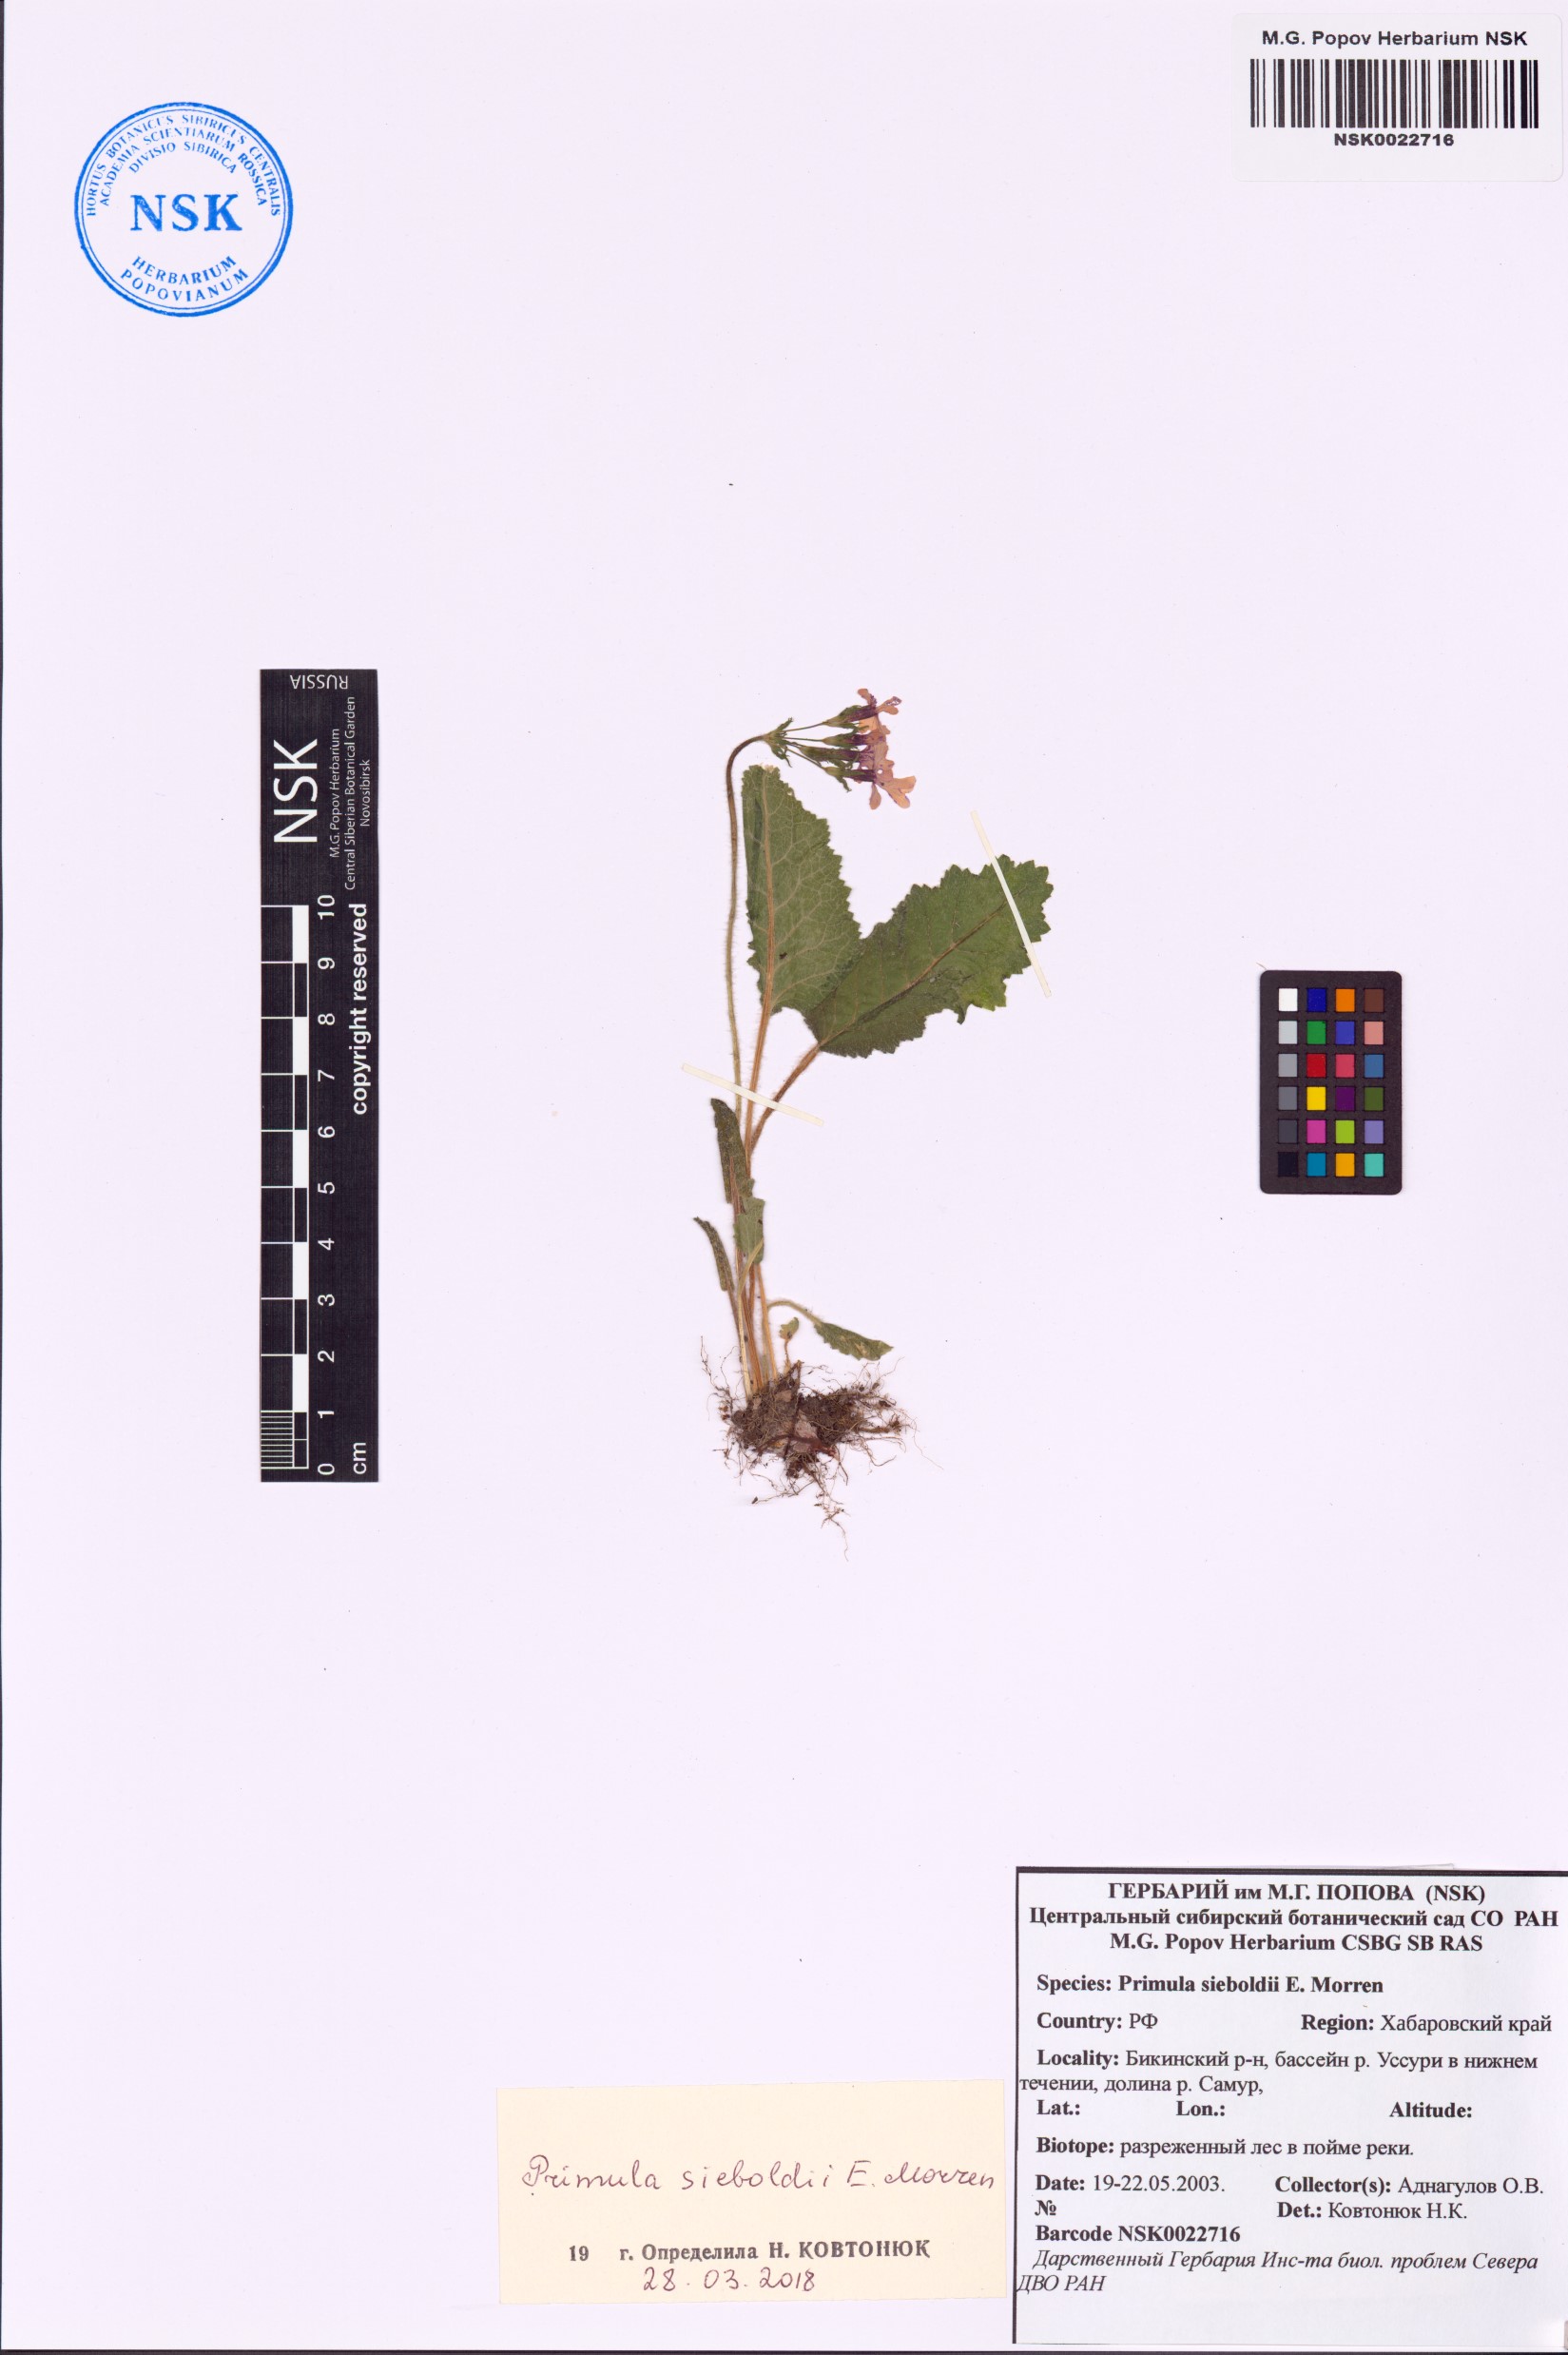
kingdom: Plantae
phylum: Tracheophyta
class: Magnoliopsida
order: Ericales
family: Primulaceae
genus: Primula
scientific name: Primula sieboldii
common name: Japanese primrose
